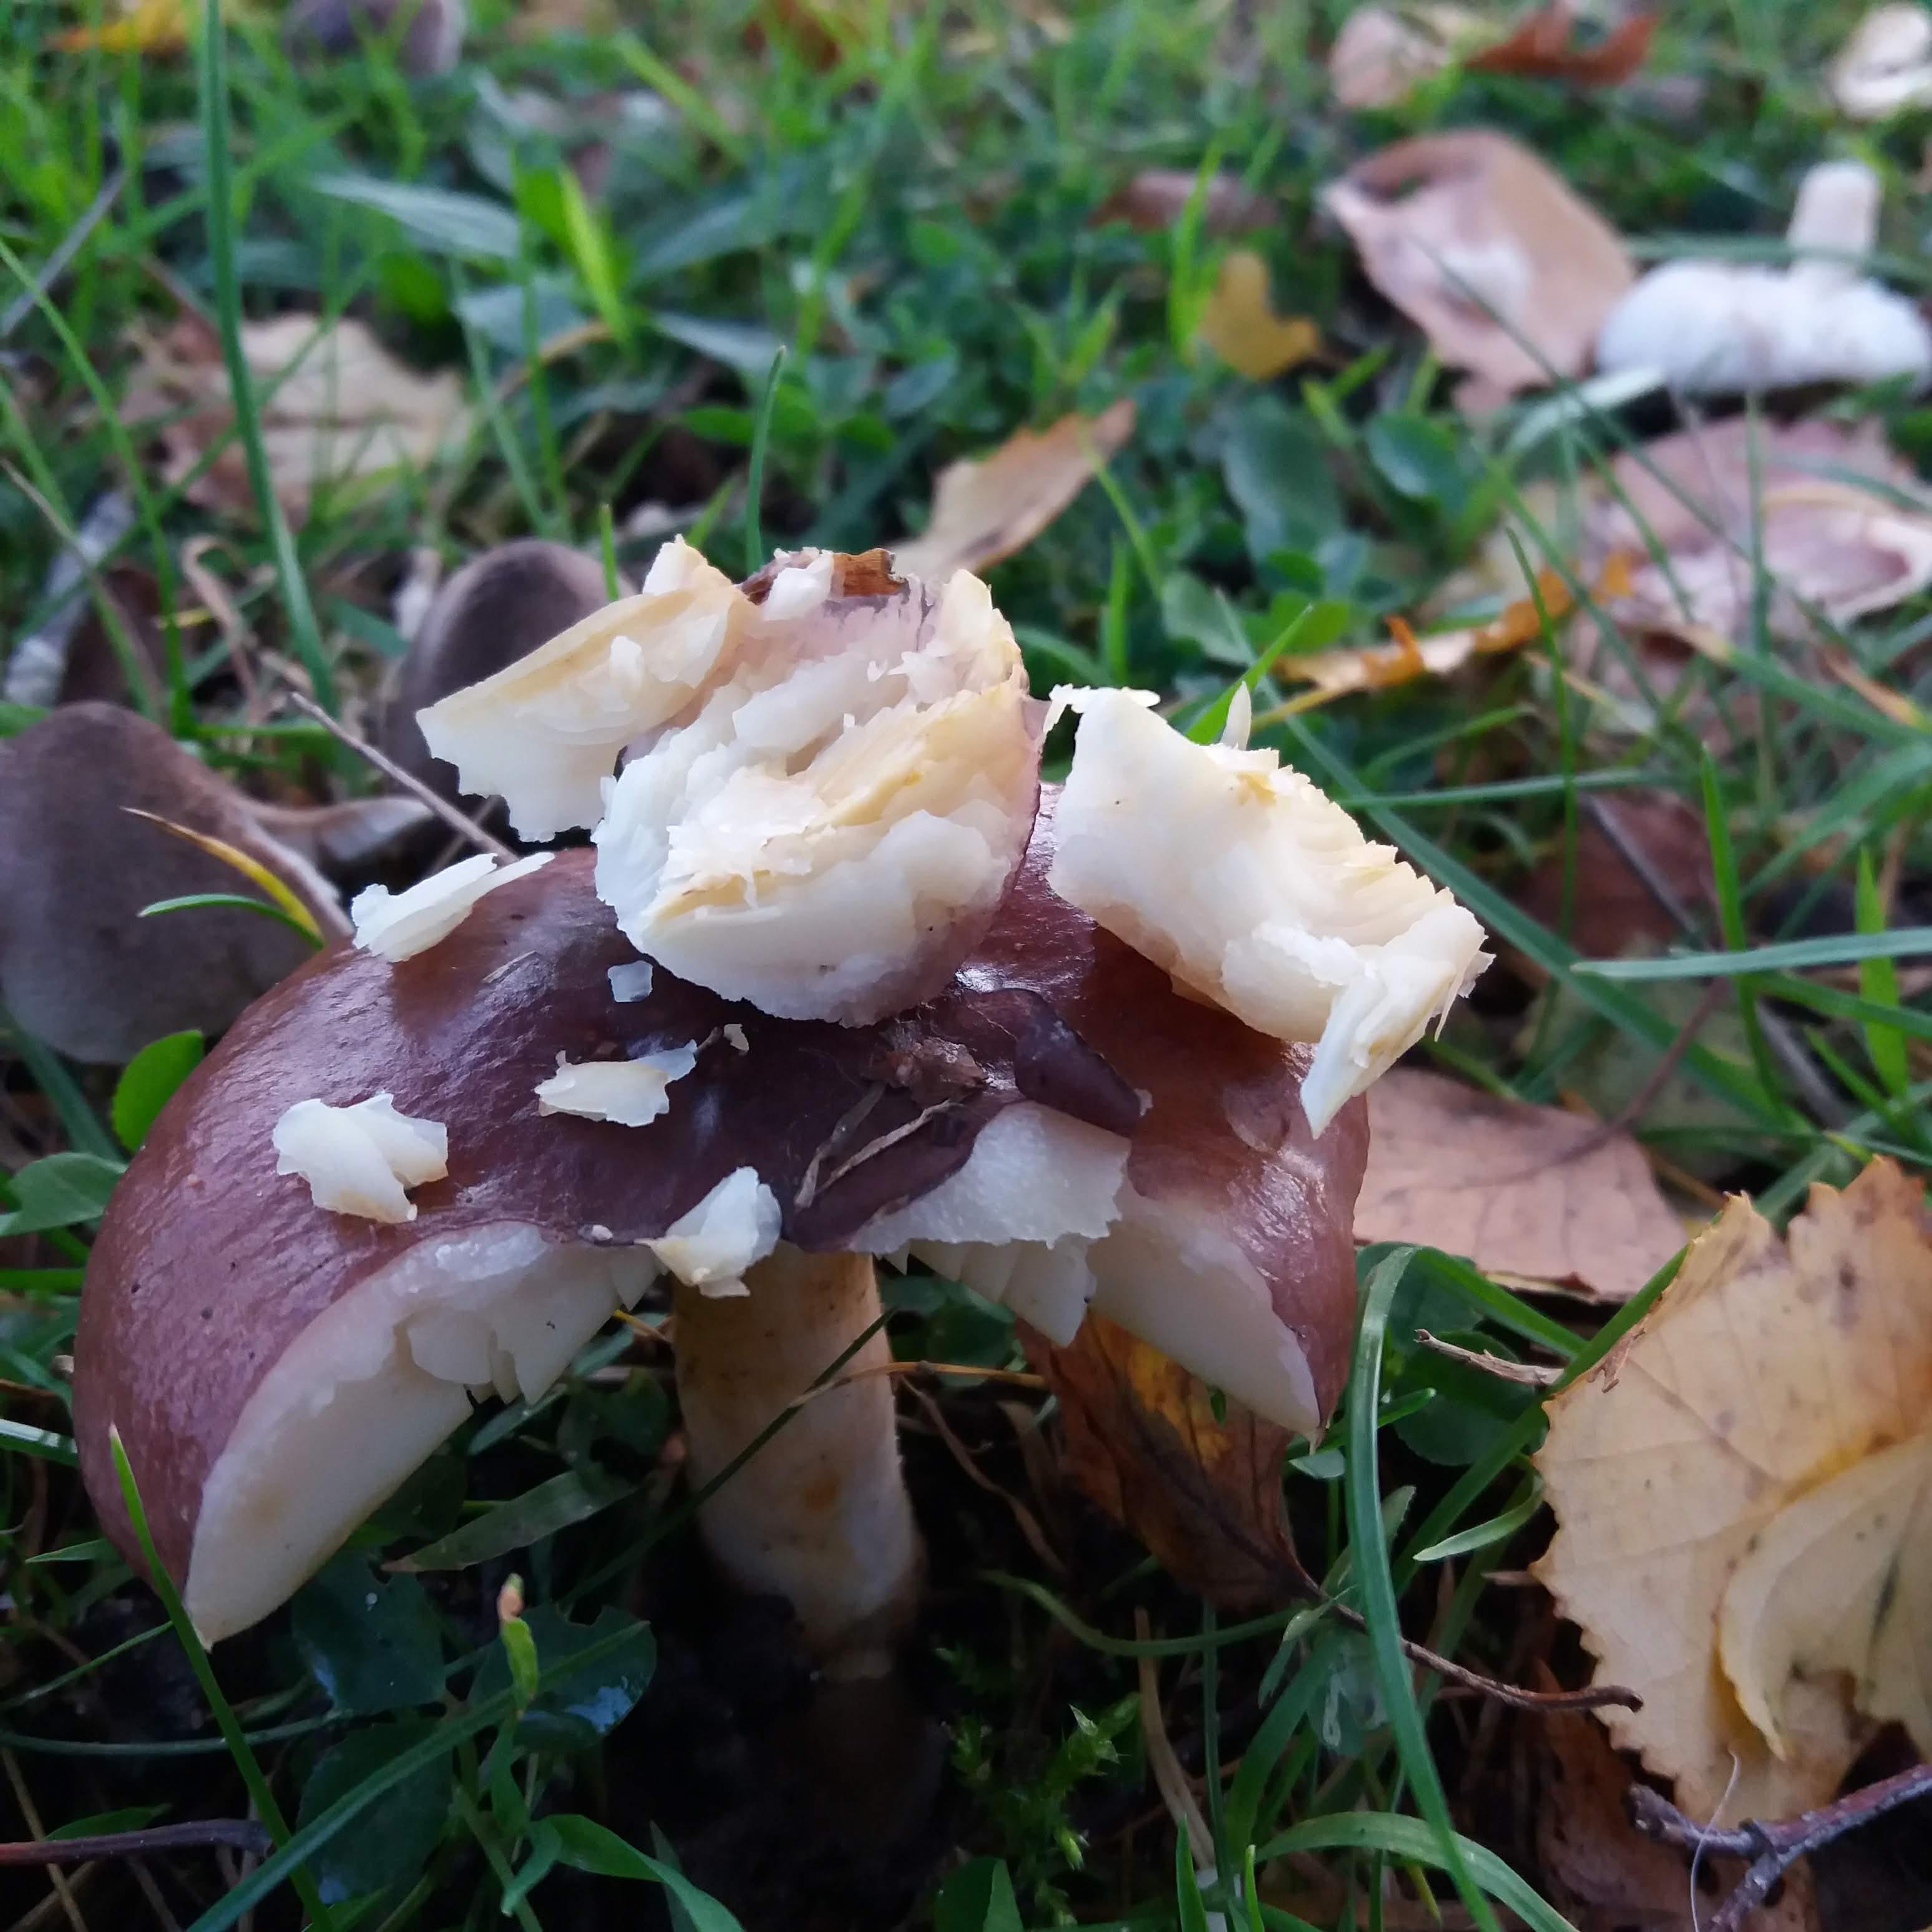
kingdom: Fungi
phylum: Basidiomycota
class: Agaricomycetes
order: Russulales
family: Russulaceae
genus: Russula
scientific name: Russula
